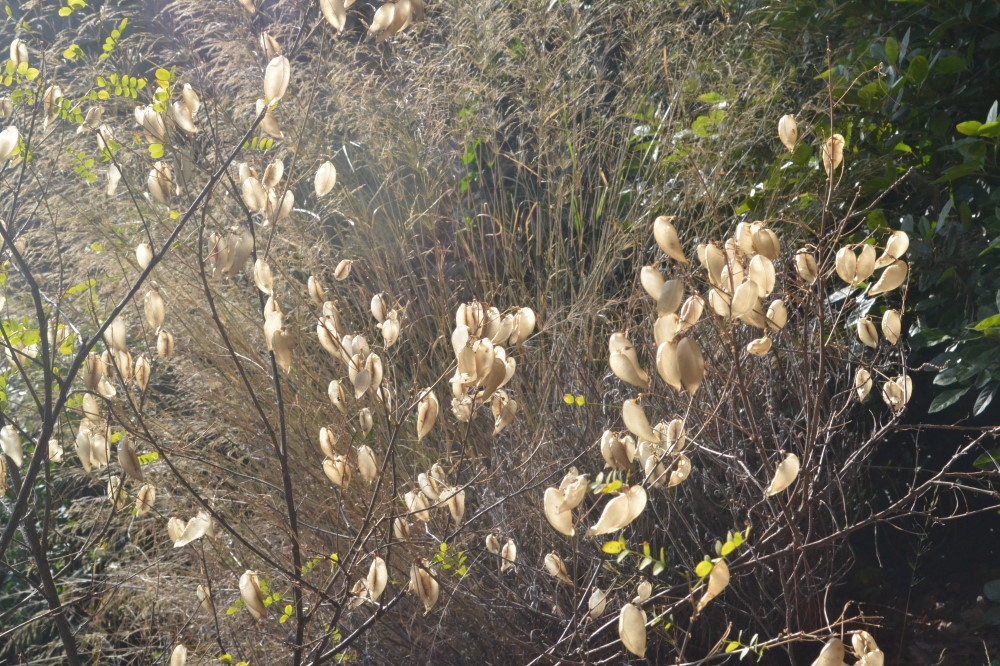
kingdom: Plantae
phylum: Tracheophyta
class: Magnoliopsida
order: Fabales
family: Fabaceae
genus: Colutea
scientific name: Colutea arborescens
